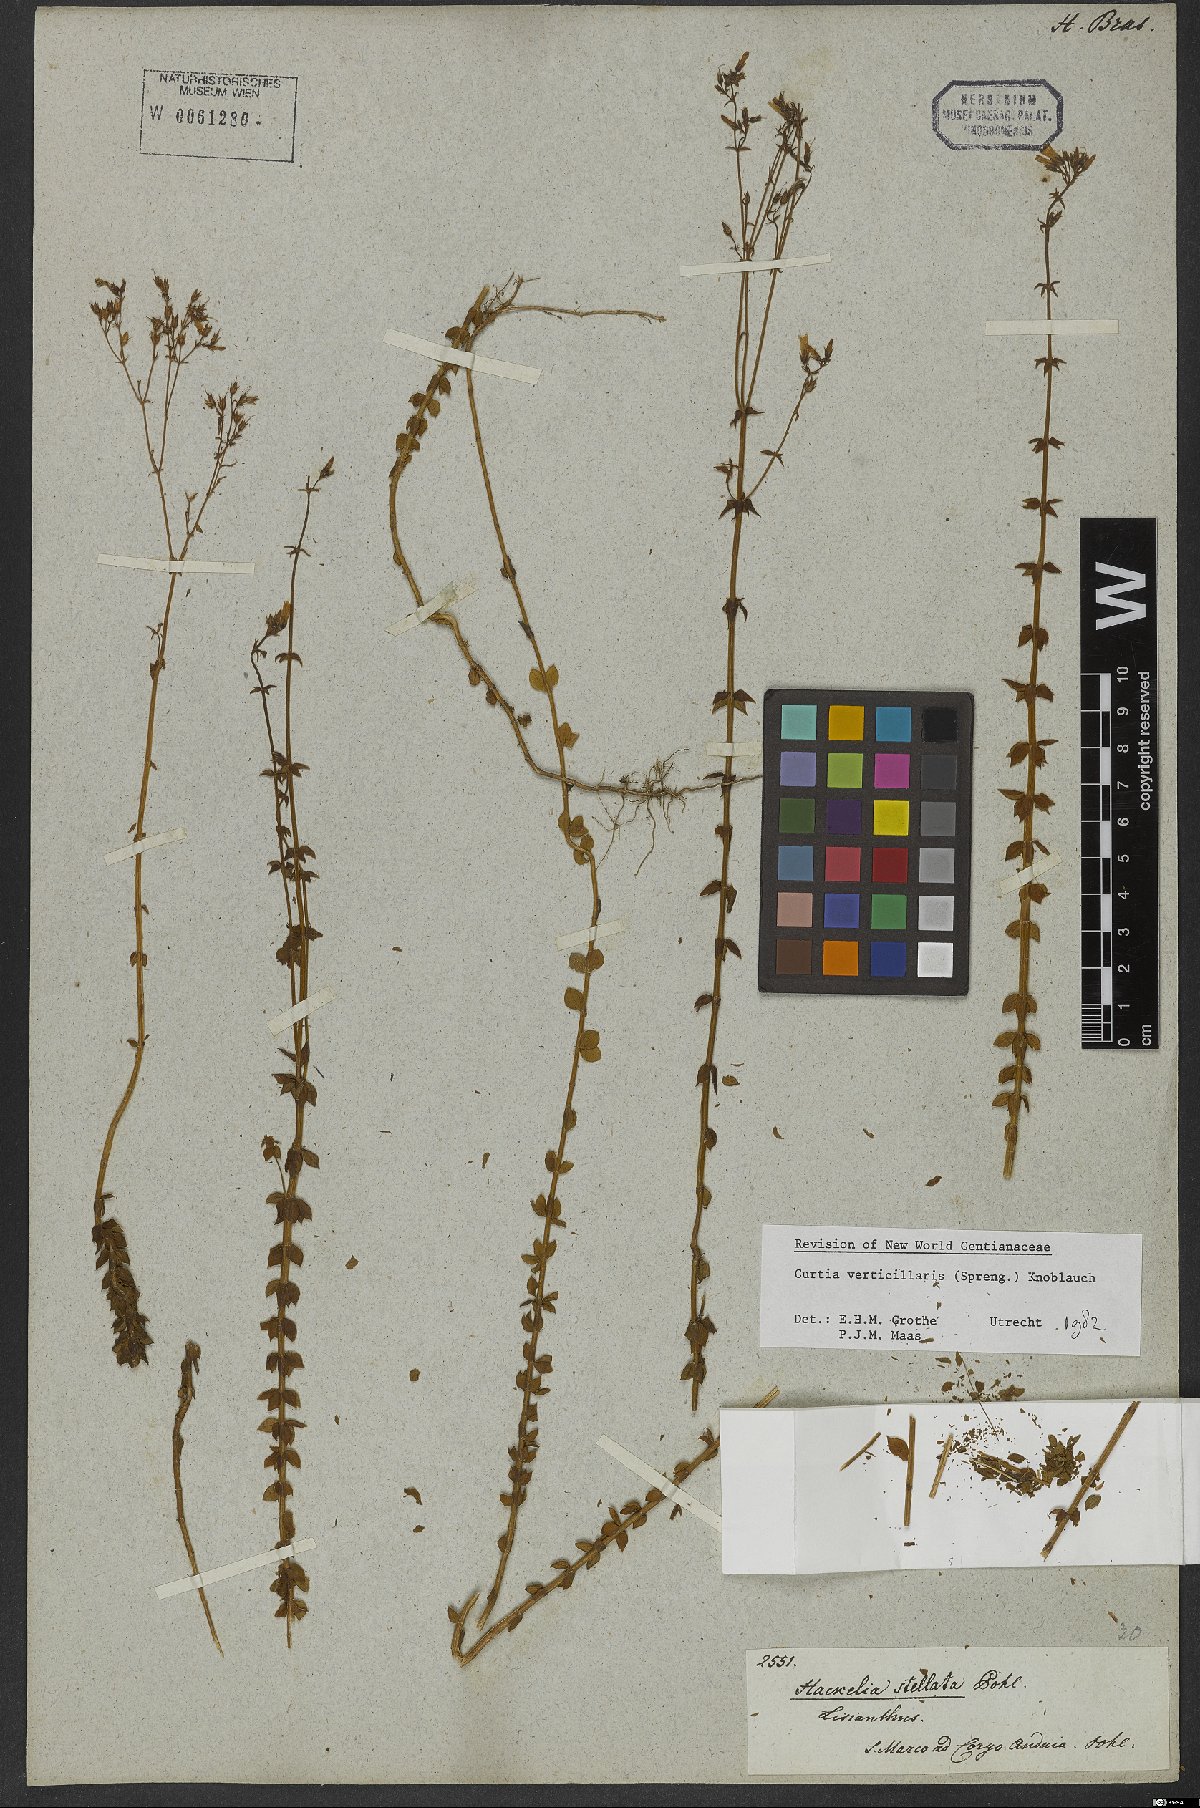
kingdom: Plantae
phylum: Tracheophyta
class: Magnoliopsida
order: Gentianales
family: Gentianaceae
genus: Curtia
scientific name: Curtia verticillaris
